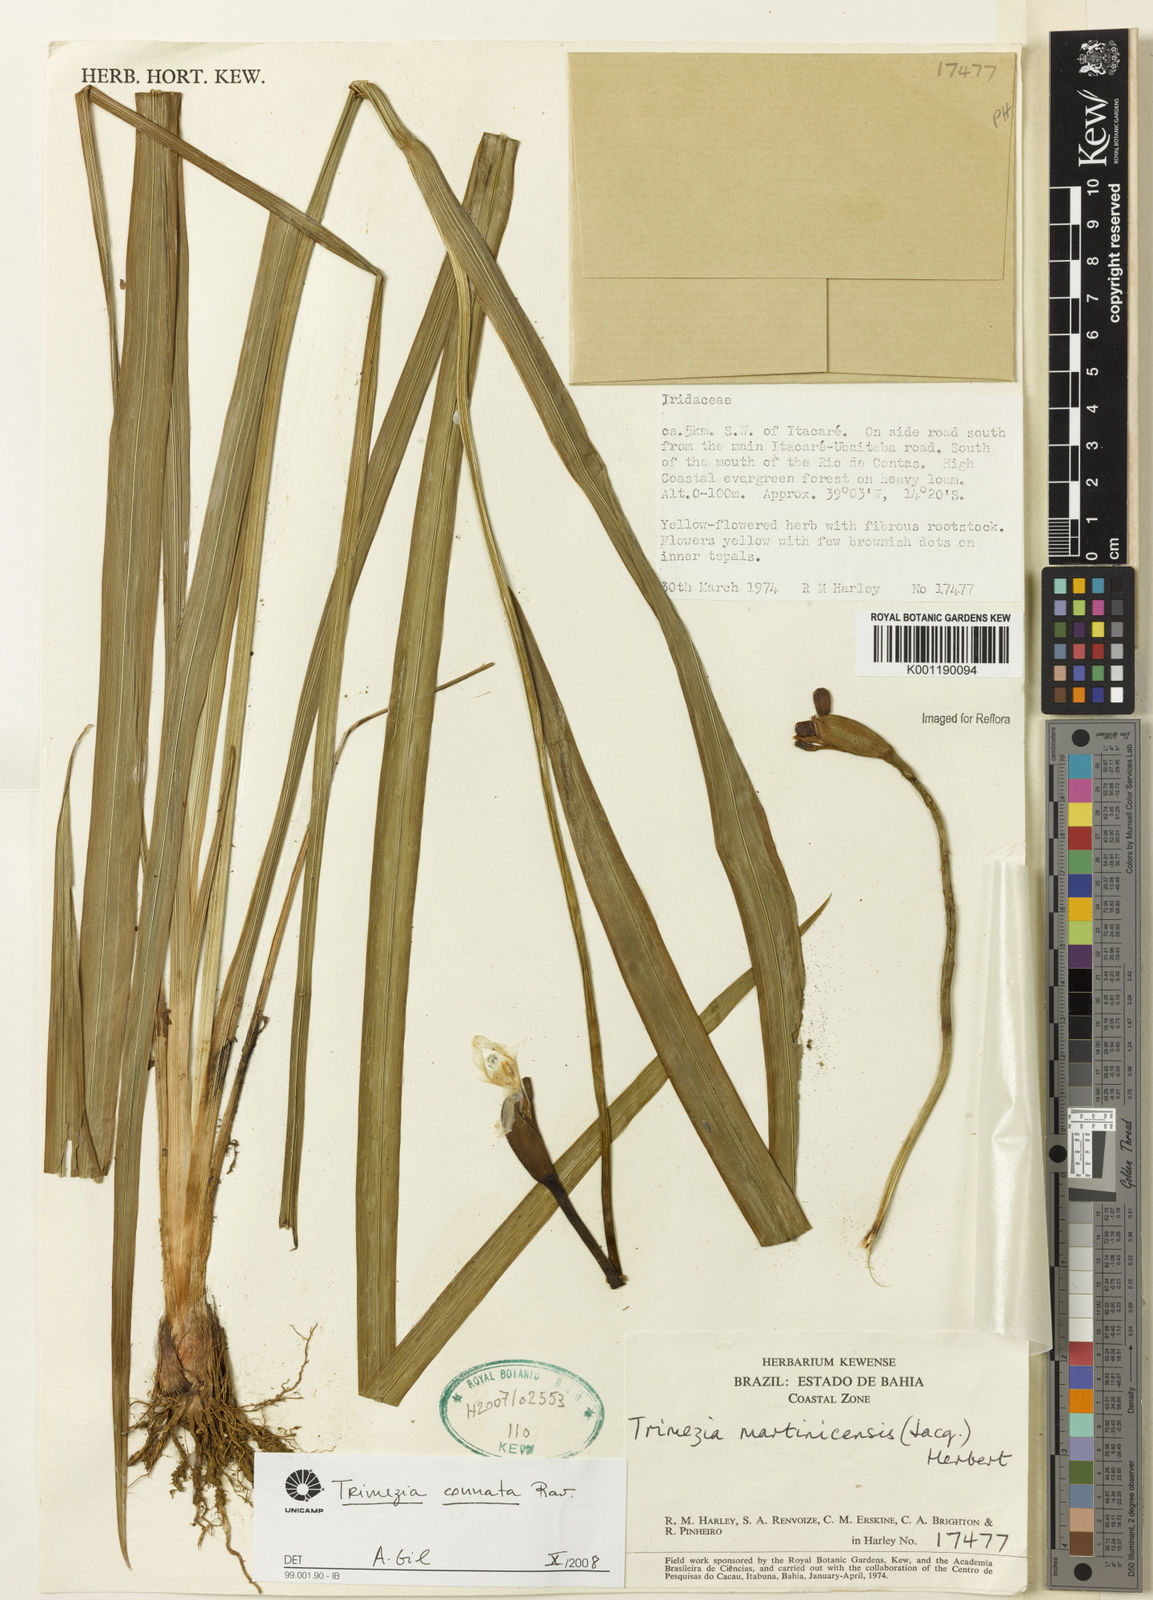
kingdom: Plantae
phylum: Tracheophyta
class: Liliopsida
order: Asparagales
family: Iridaceae
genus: Trimezia
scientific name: Trimezia martinicensis
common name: Martinique trimezia
